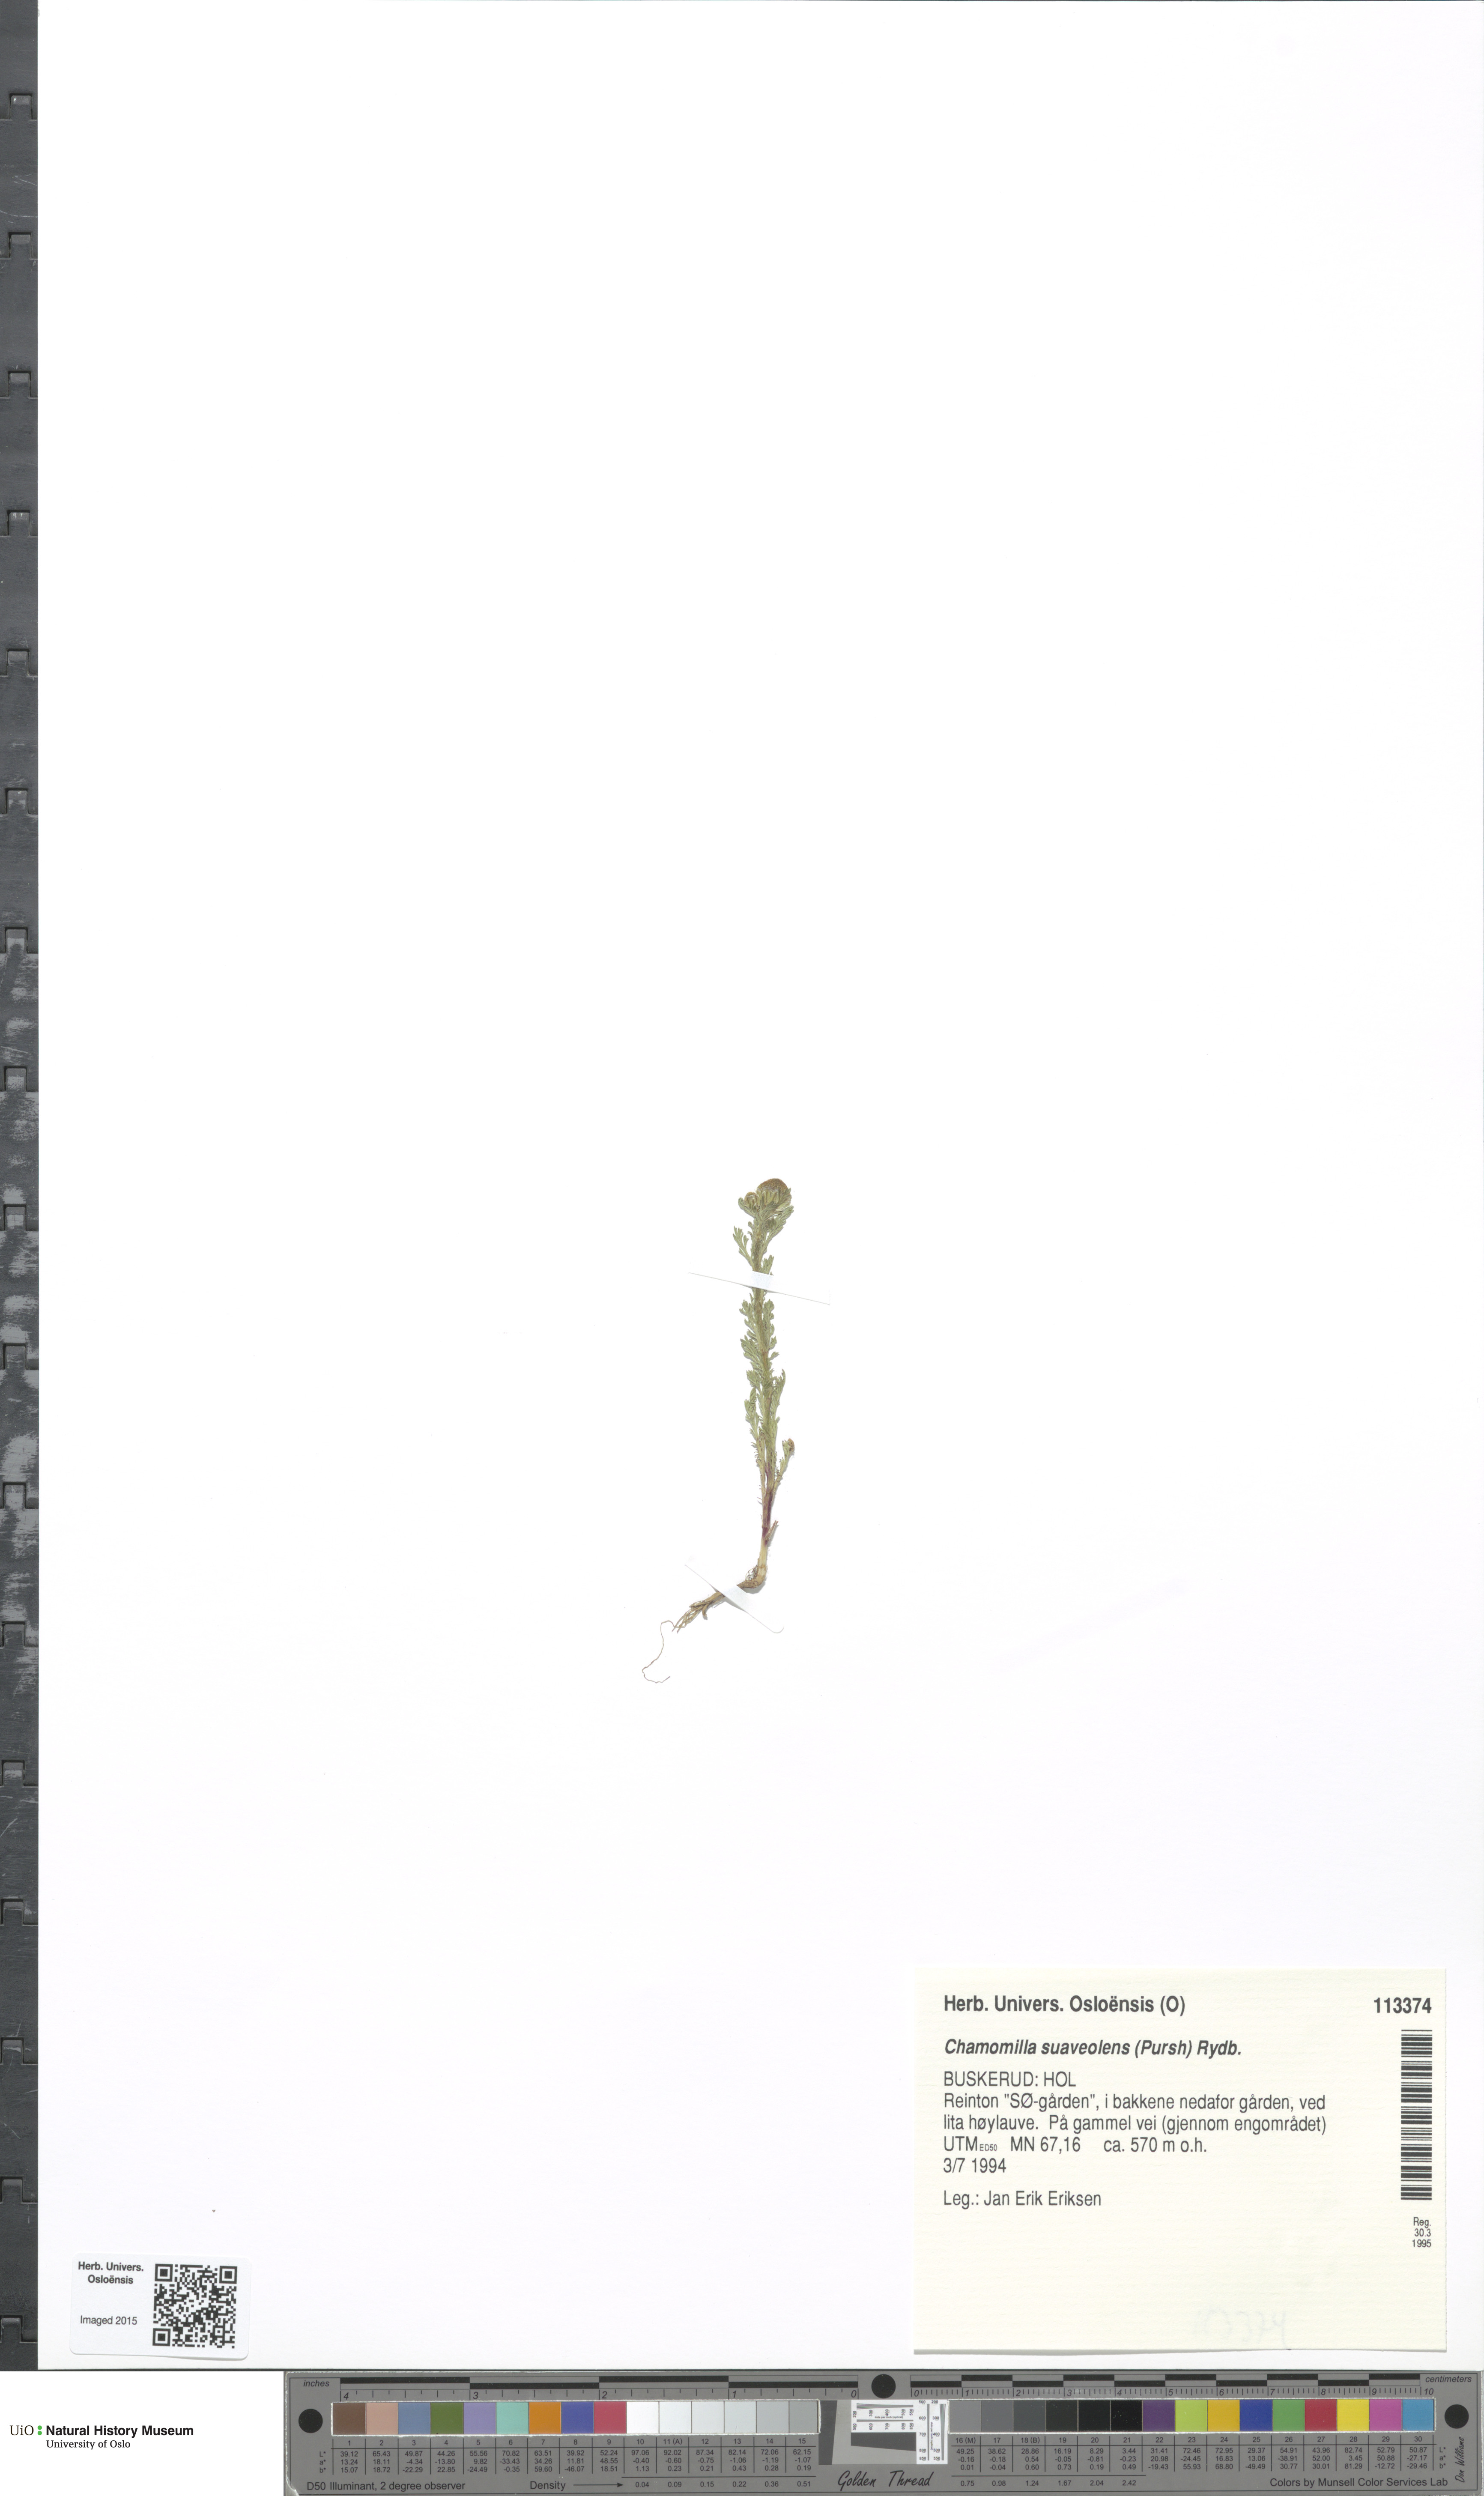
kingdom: Plantae
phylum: Tracheophyta
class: Magnoliopsida
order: Asterales
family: Asteraceae
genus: Matricaria
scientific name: Matricaria discoidea
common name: Disc mayweed
